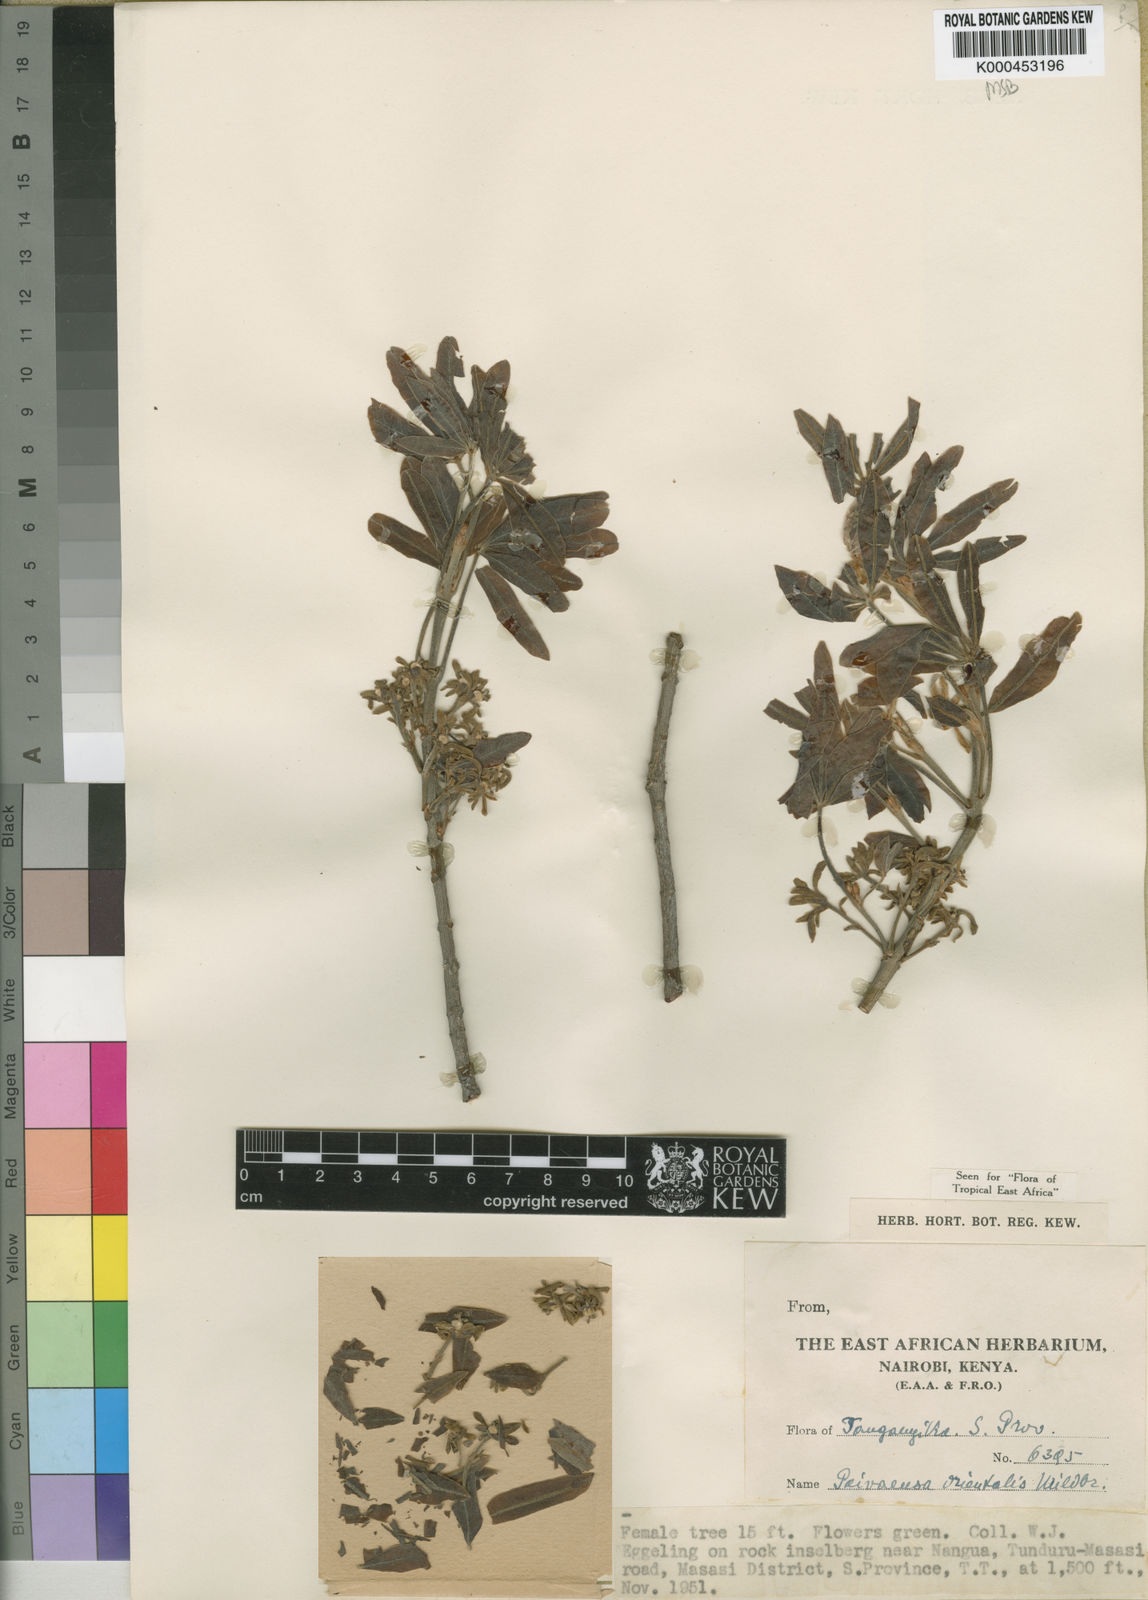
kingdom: Plantae
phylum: Tracheophyta
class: Magnoliopsida
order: Malpighiales
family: Picrodendraceae
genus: Oldfieldia
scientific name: Oldfieldia somalensis
